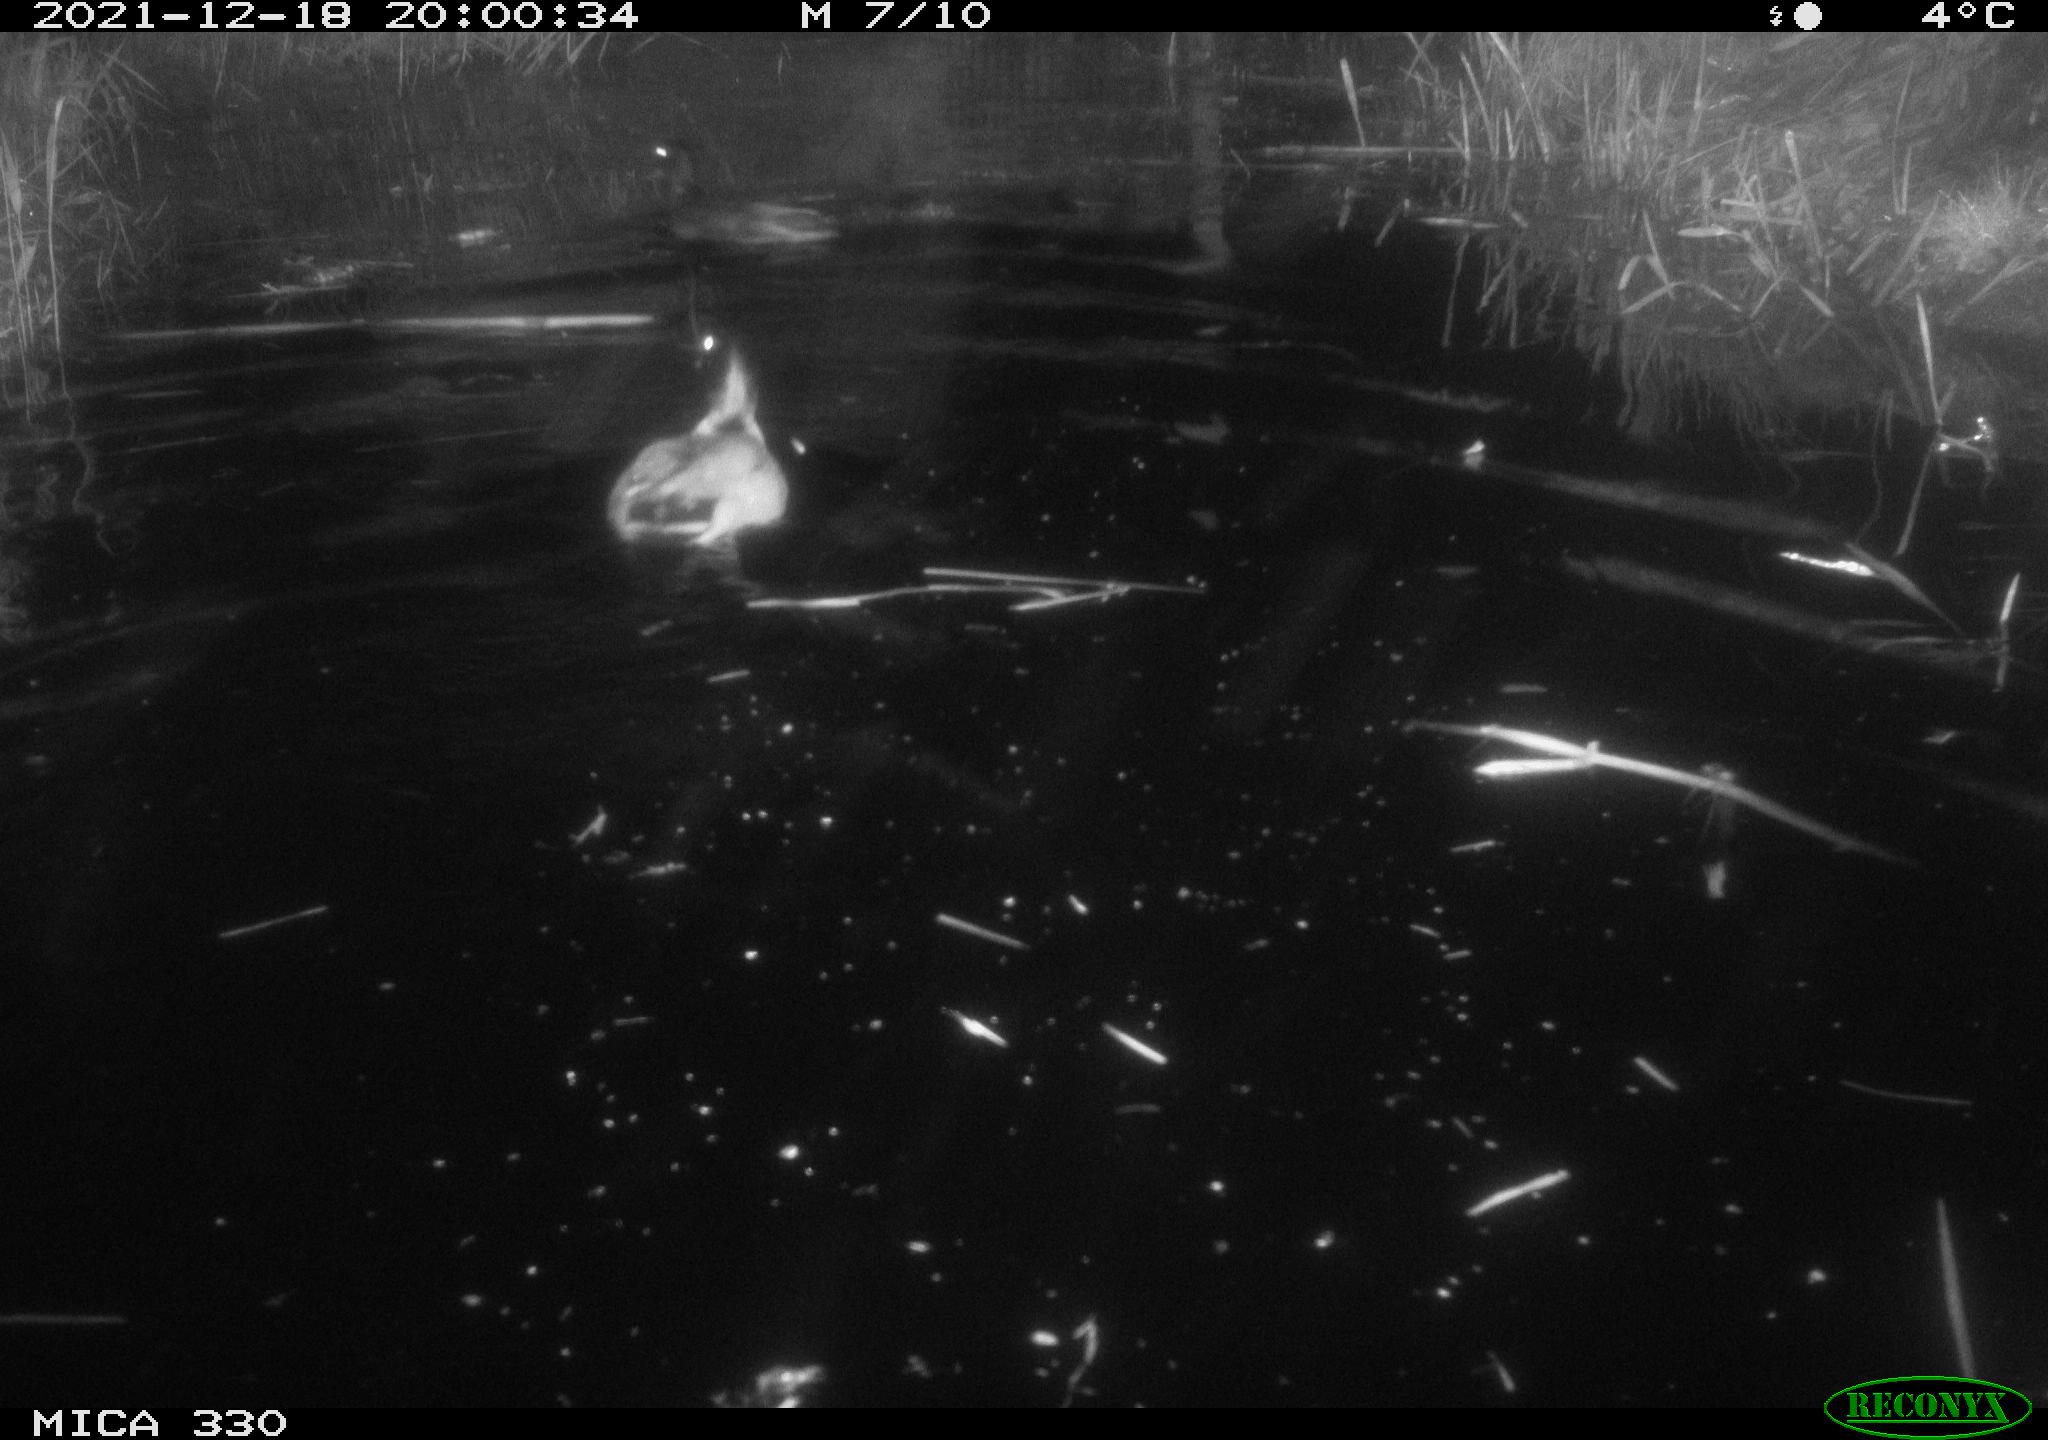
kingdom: Animalia
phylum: Chordata
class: Aves
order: Anseriformes
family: Anatidae
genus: Anas
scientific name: Anas platyrhynchos
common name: Mallard
